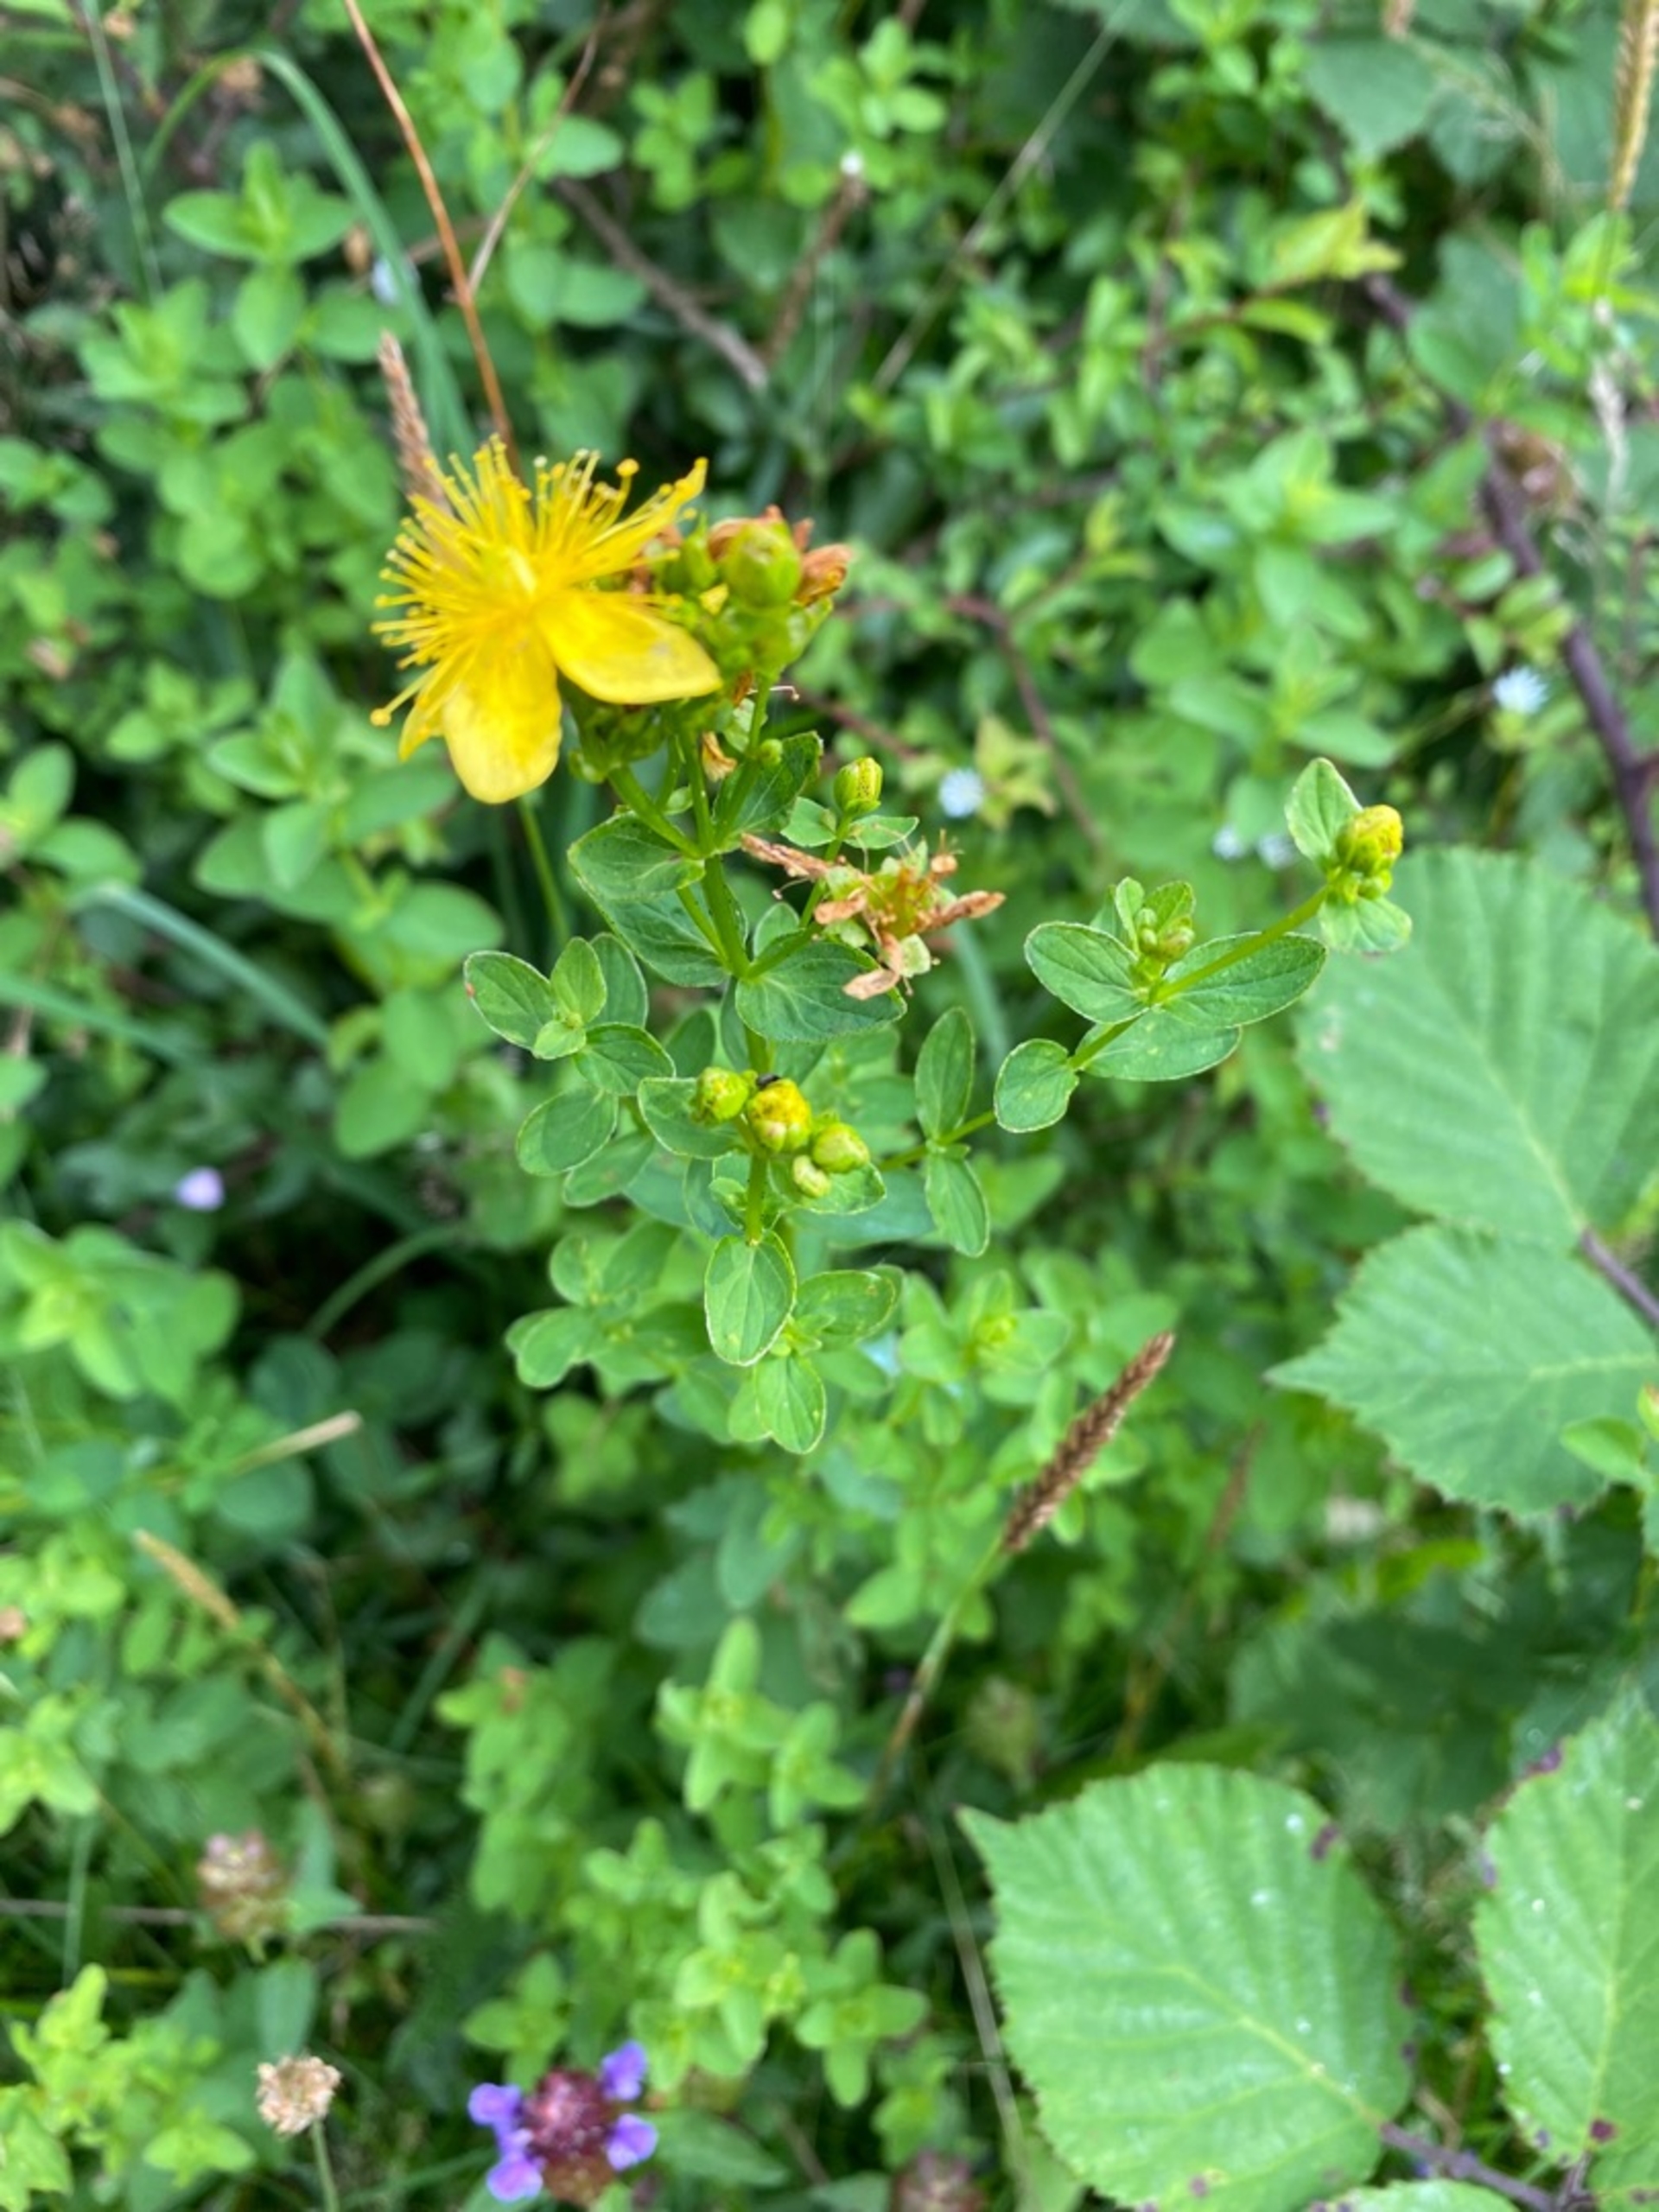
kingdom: Plantae
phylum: Tracheophyta
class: Magnoliopsida
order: Malpighiales
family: Hypericaceae
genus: Hypericum
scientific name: Hypericum maculatum
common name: Kantet perikon
